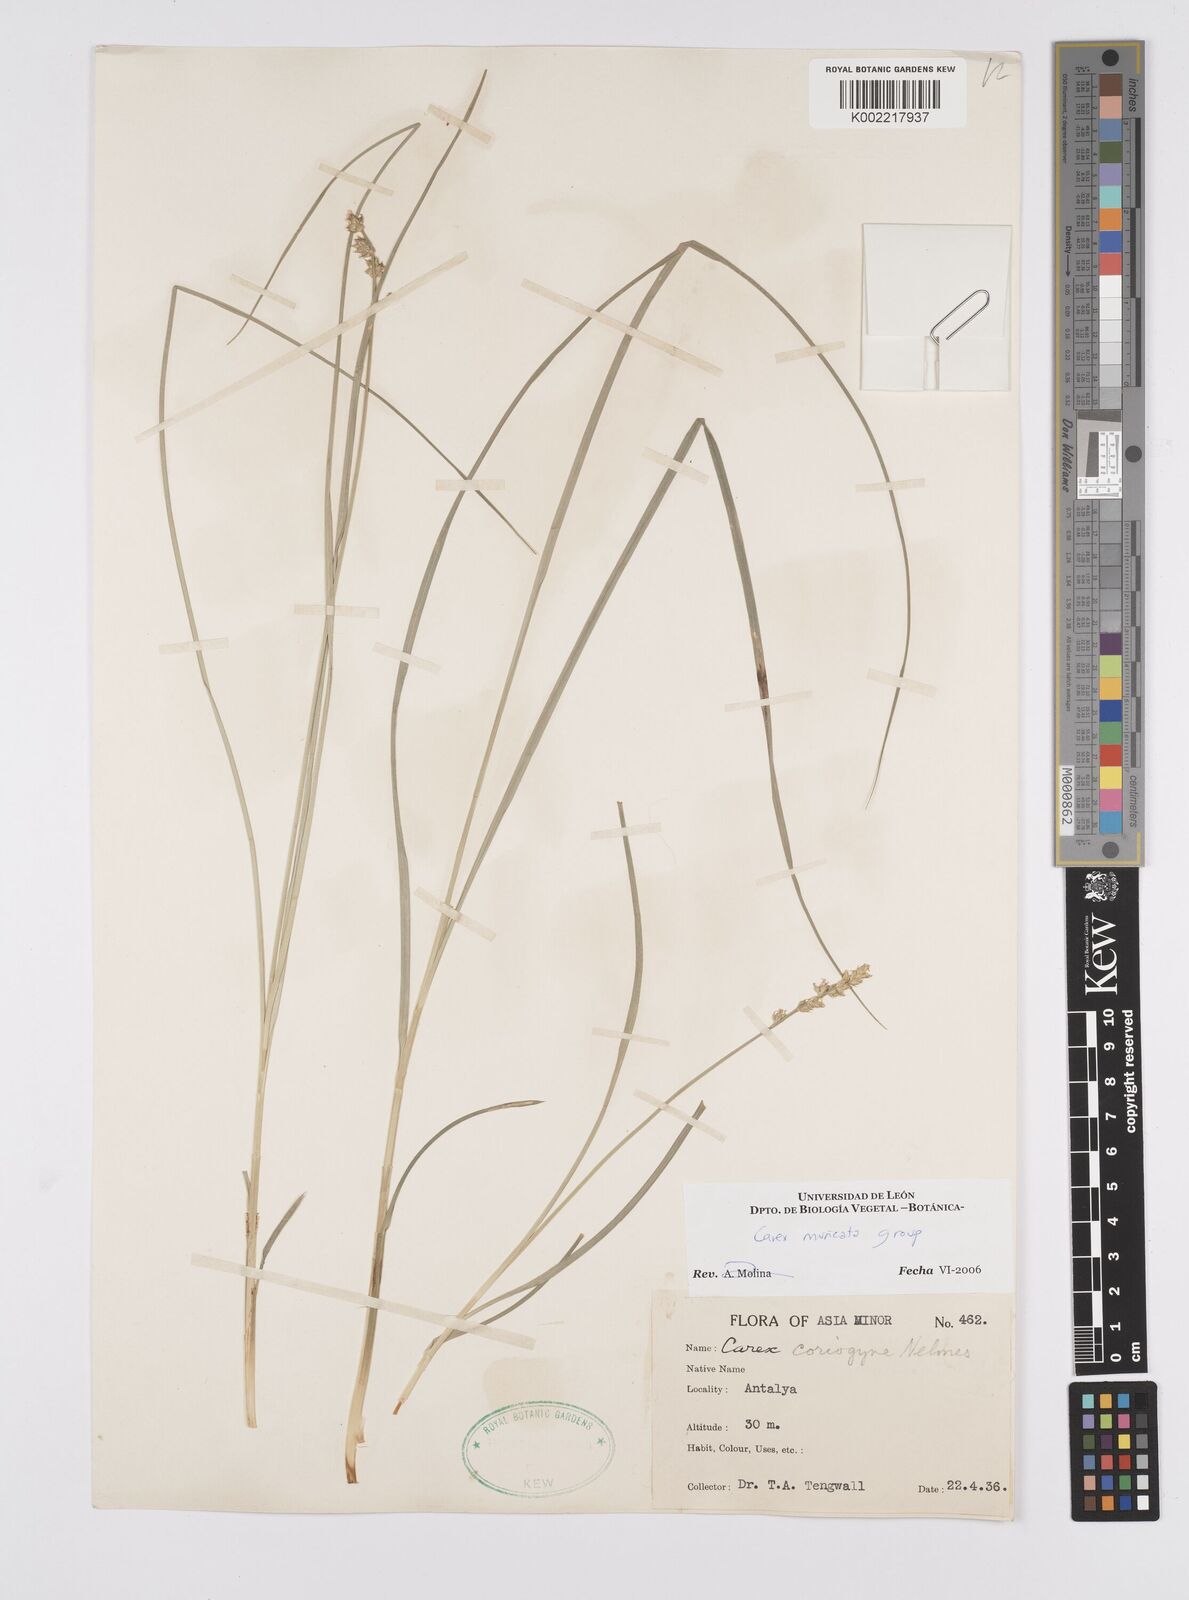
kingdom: Plantae
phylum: Tracheophyta
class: Liliopsida
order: Poales
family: Cyperaceae
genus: Carex
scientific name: Carex divulsa
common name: Grassland sedge
